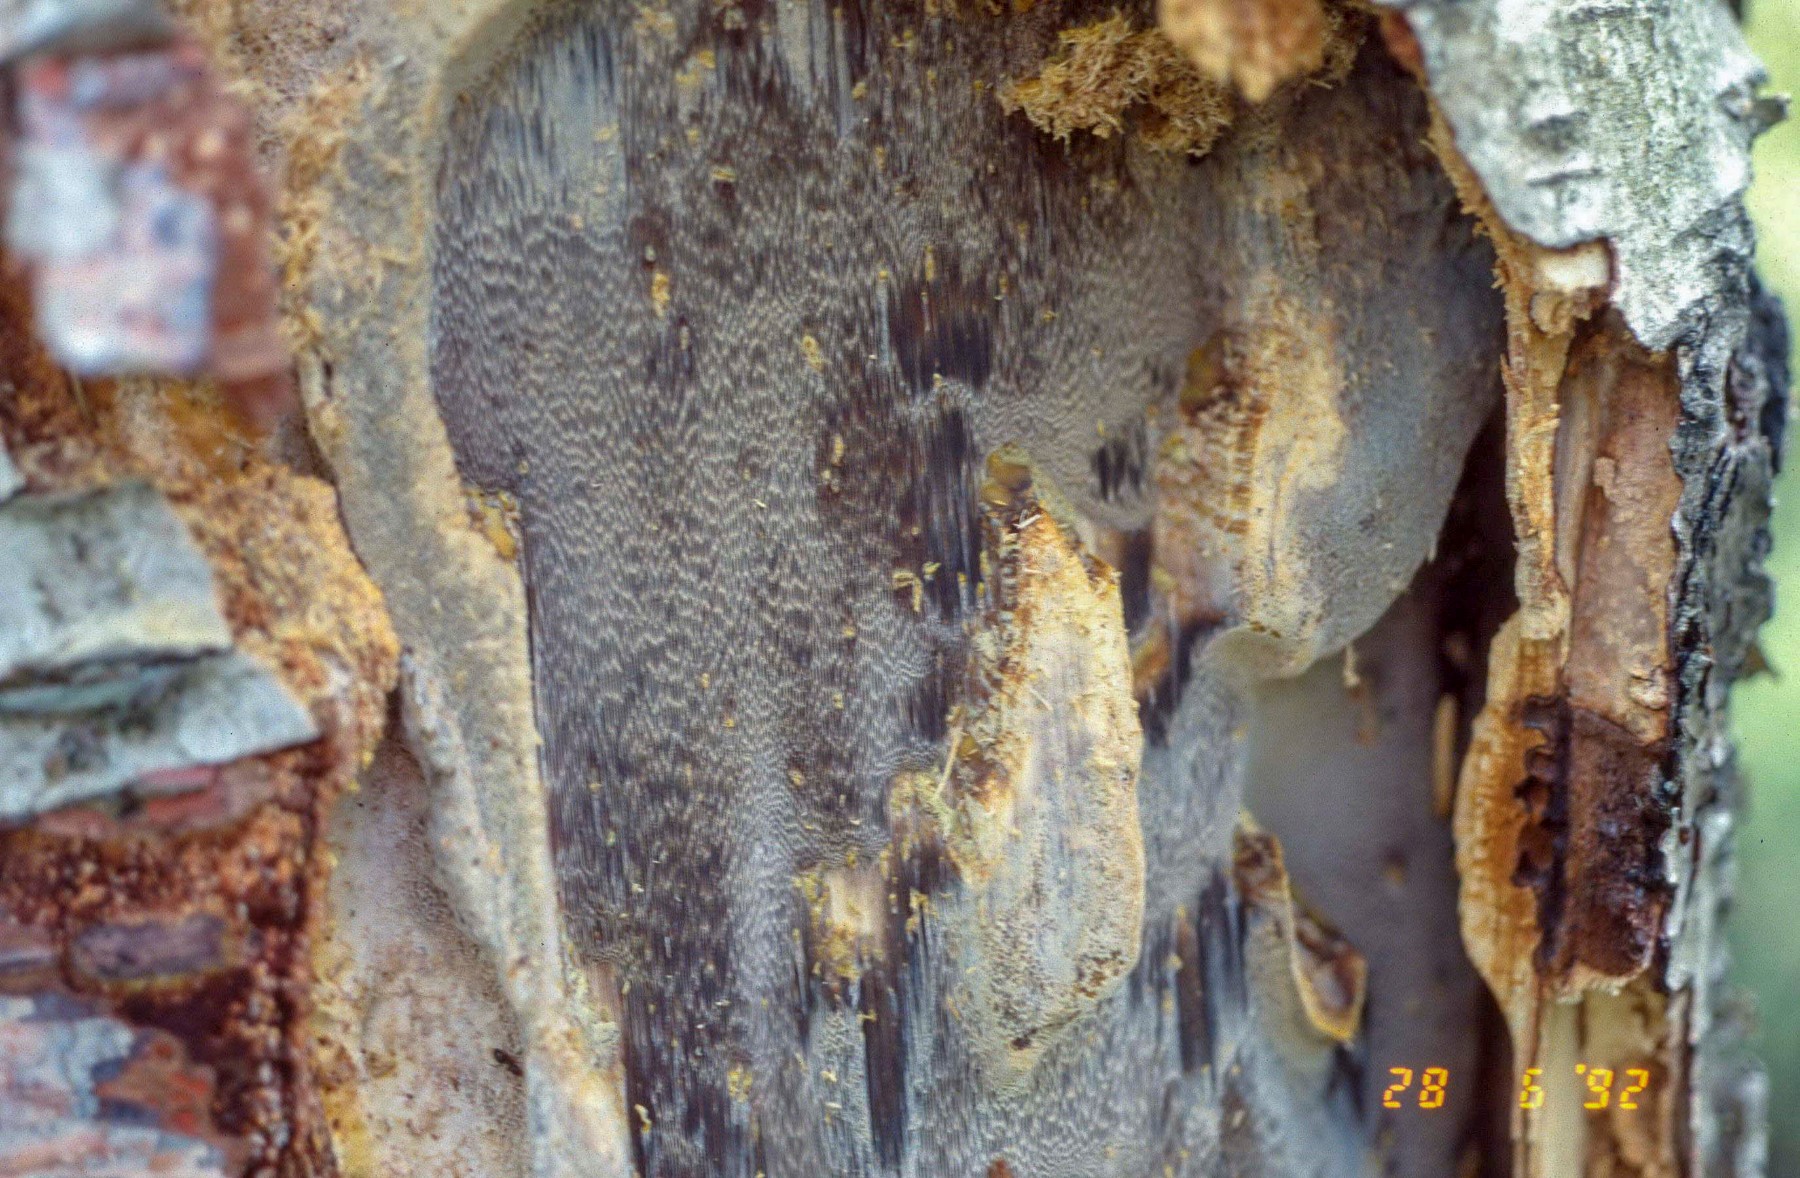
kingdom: Fungi
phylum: Basidiomycota
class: Agaricomycetes
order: Hymenochaetales
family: Hymenochaetaceae
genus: Inonotus
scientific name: Inonotus obliquus
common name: birke-spejlporesvamp
